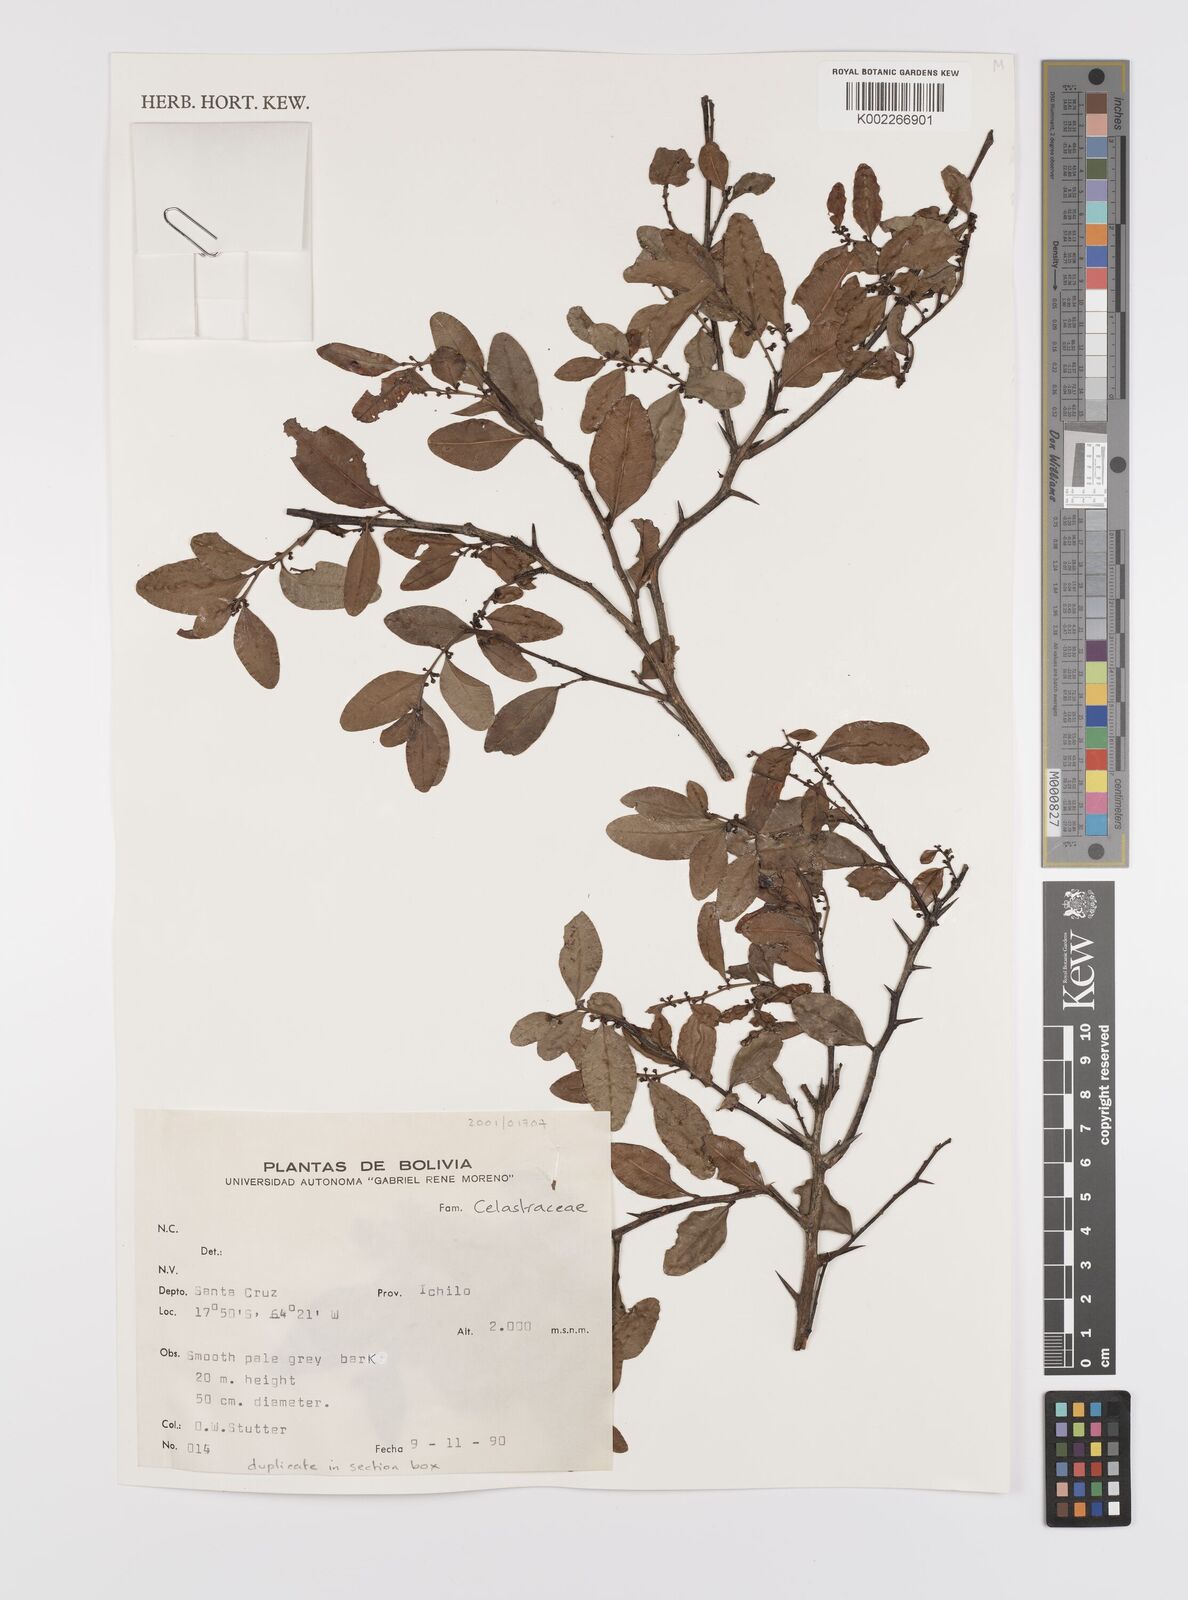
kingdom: Plantae
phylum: Tracheophyta
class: Magnoliopsida
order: Celastrales
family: Celastraceae
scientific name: Celastraceae
